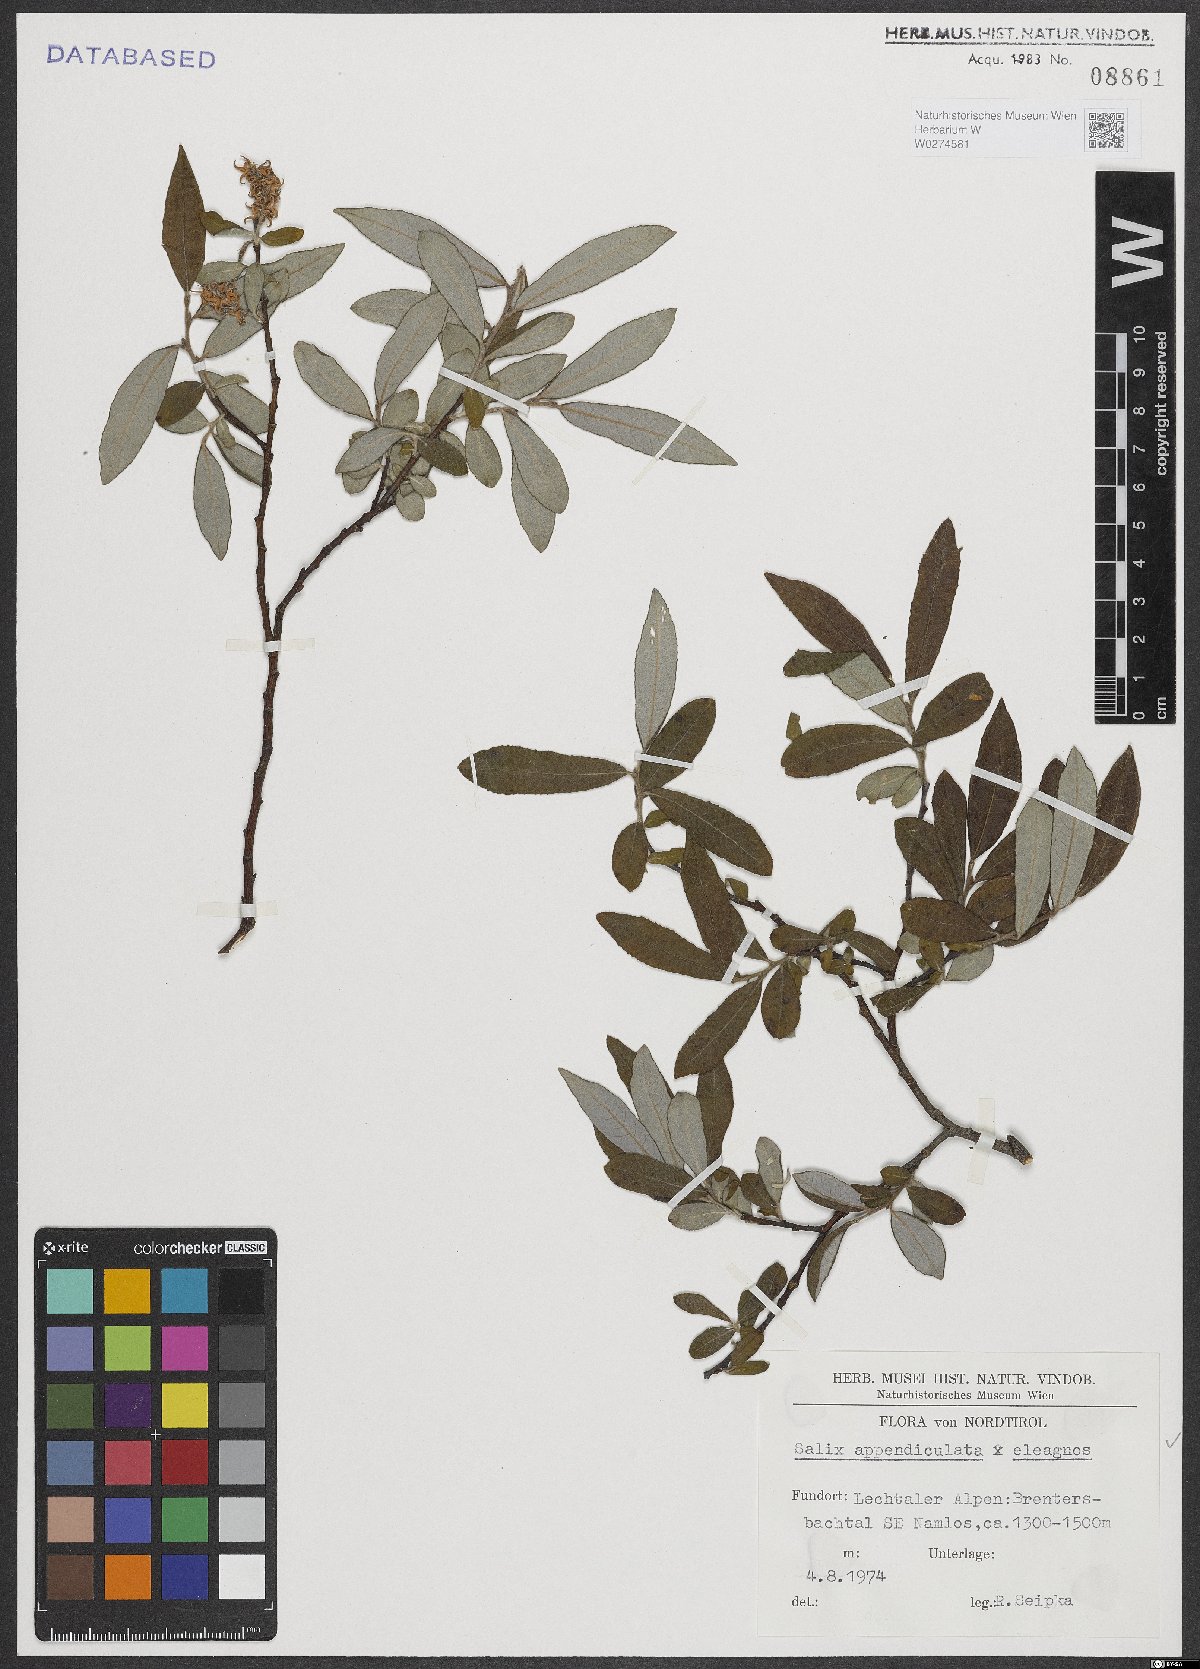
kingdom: Plantae
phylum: Tracheophyta
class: Magnoliopsida
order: Malpighiales
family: Salicaceae
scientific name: Salicaceae
